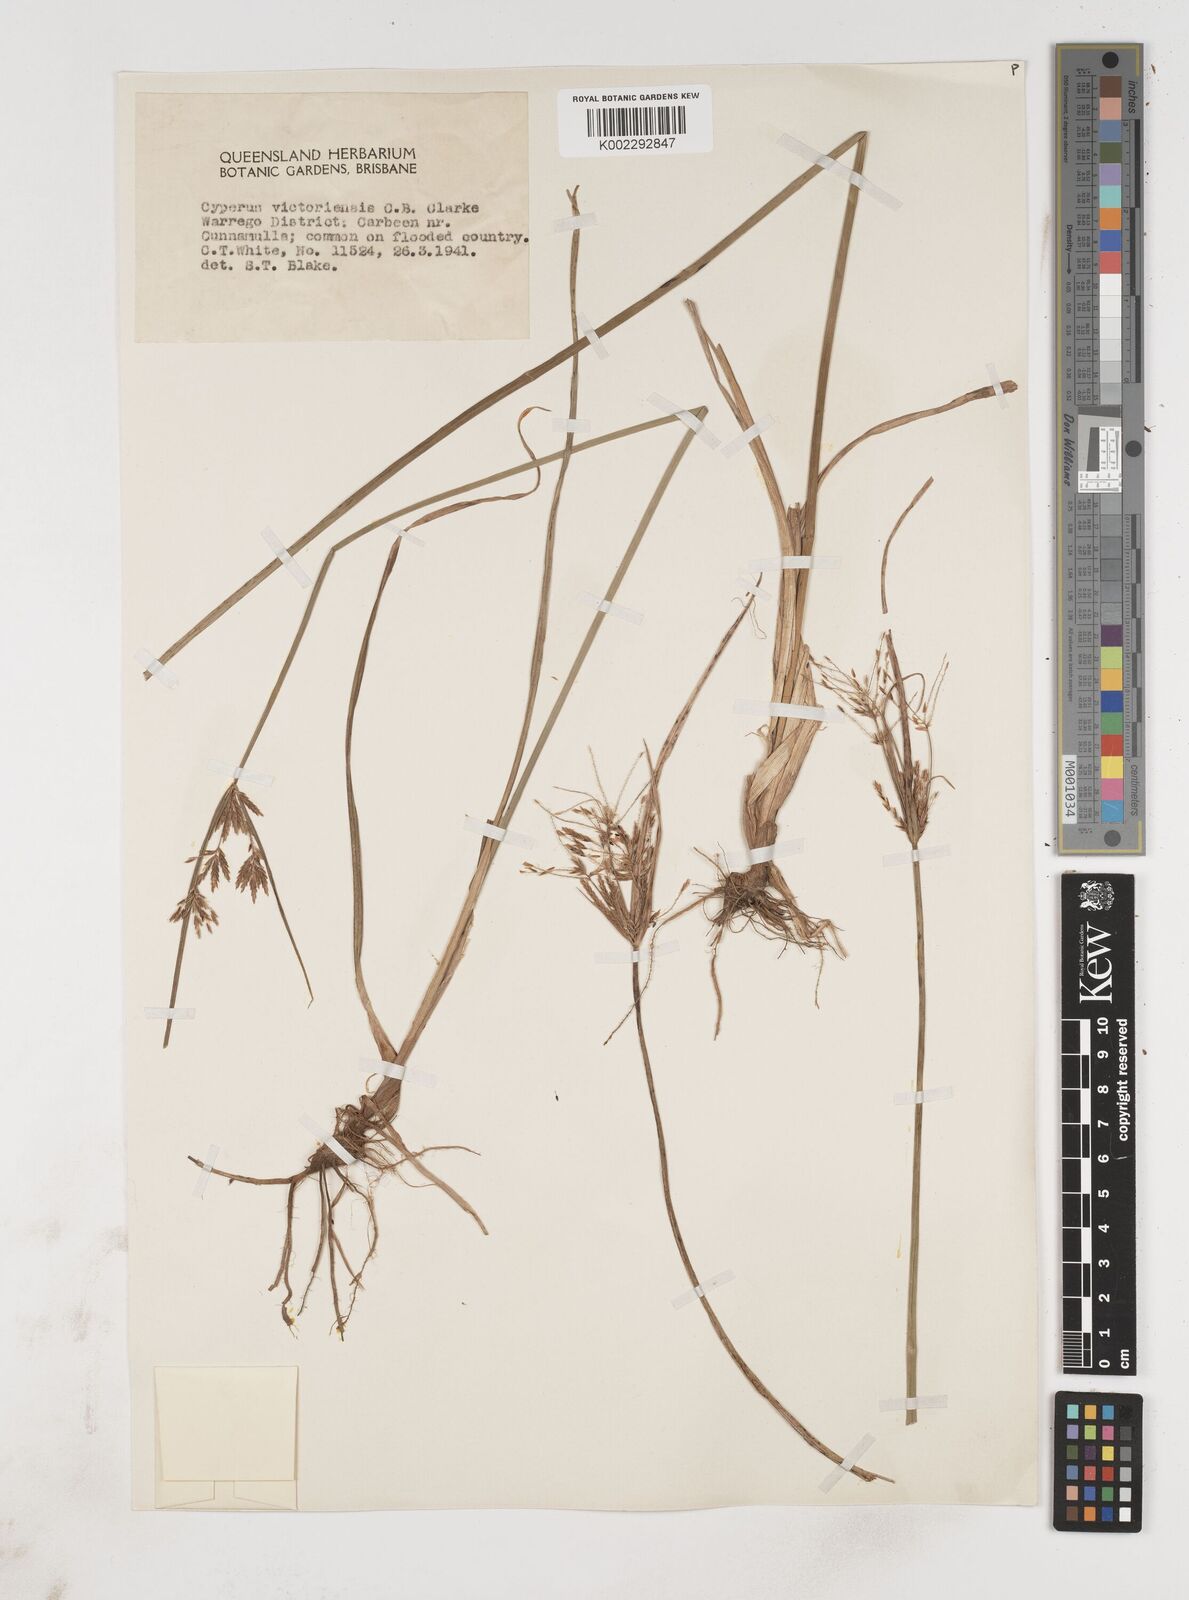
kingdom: Plantae
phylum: Tracheophyta
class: Liliopsida
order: Poales
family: Cyperaceae
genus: Cyperus
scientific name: Cyperus victoriensis
